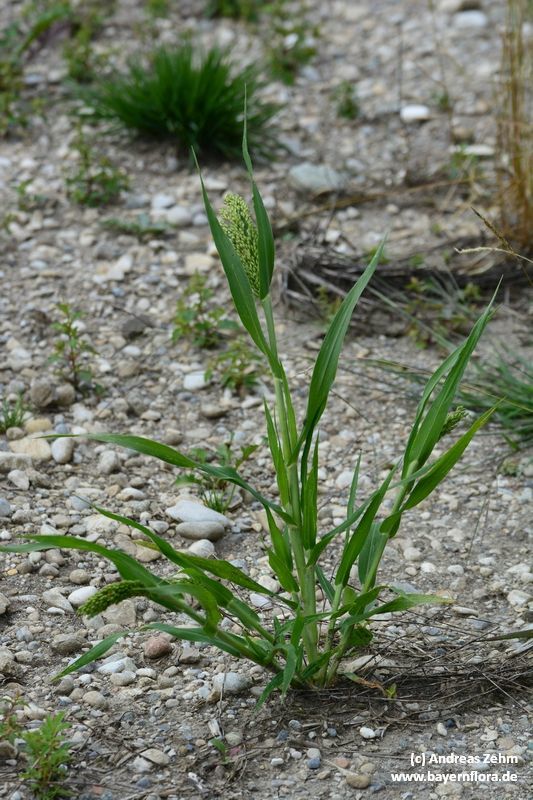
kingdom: Plantae
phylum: Tracheophyta
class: Liliopsida
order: Poales
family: Poaceae
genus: Panicum
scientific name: Panicum miliaceum
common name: Common millet
